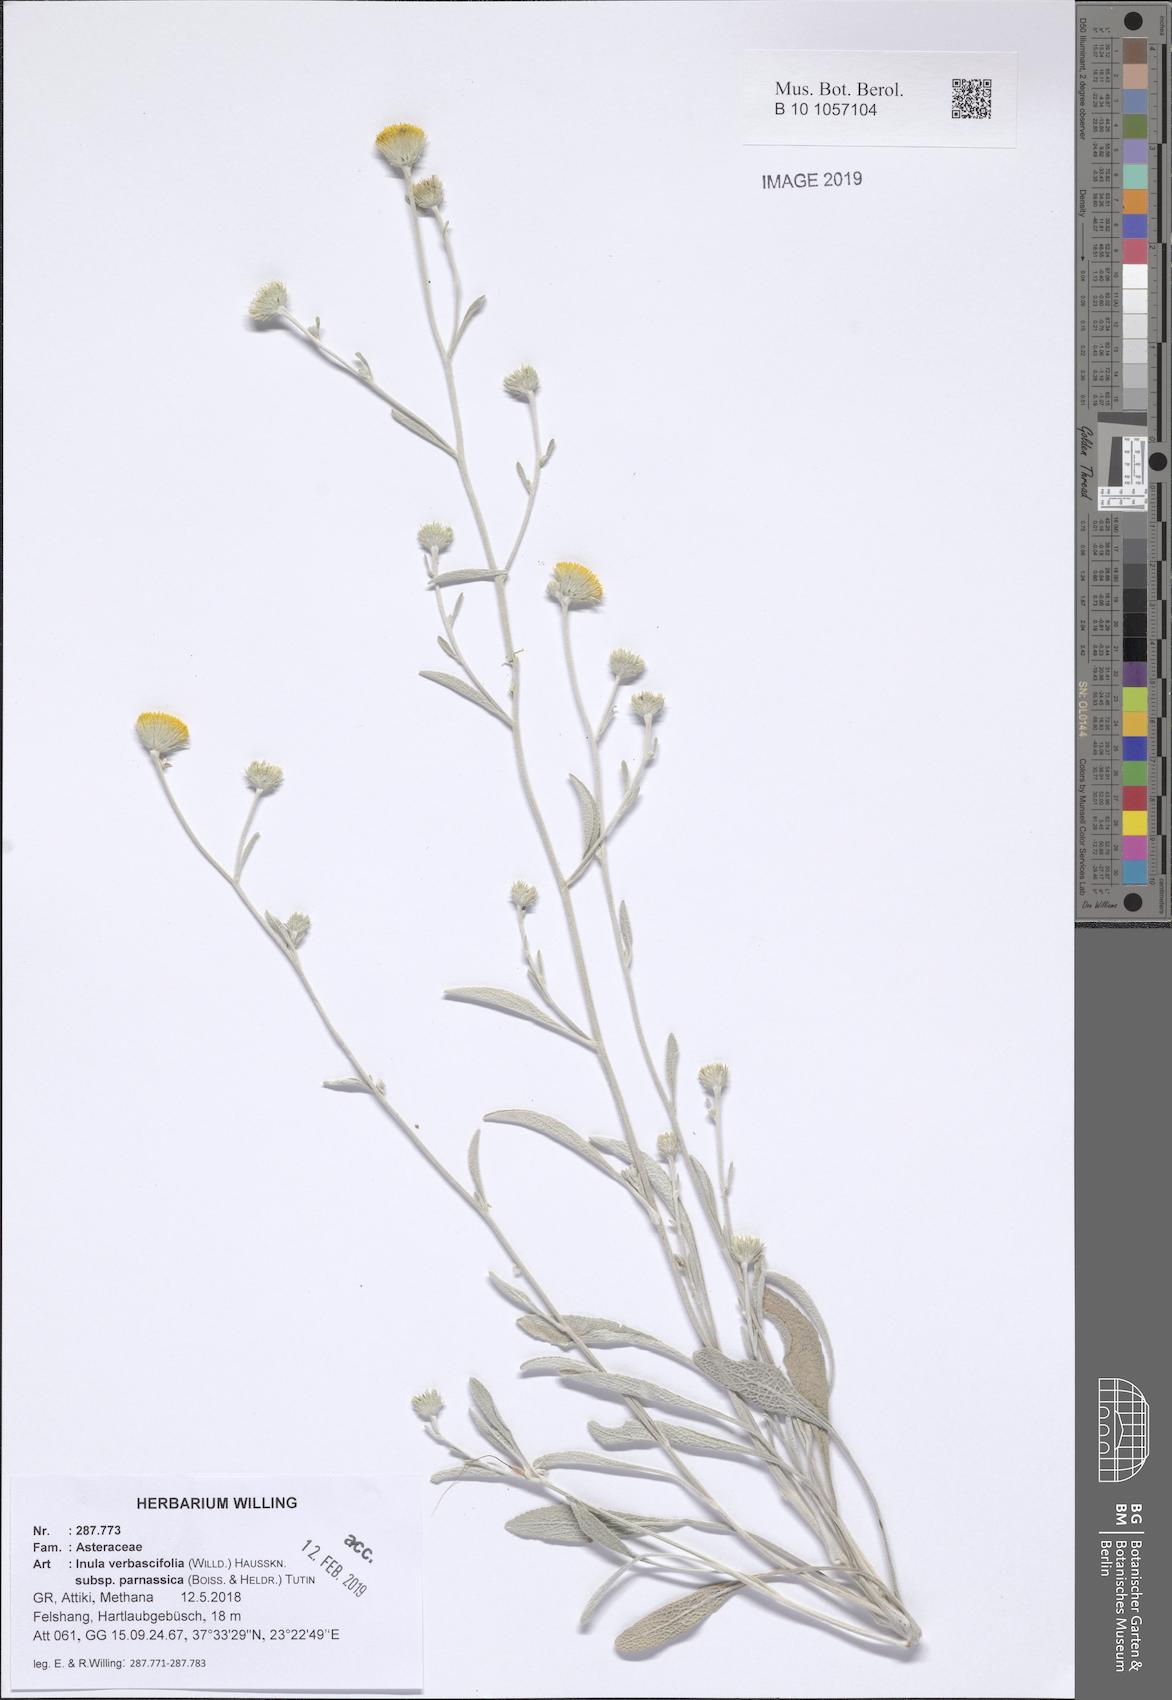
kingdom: Plantae
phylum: Tracheophyta
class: Magnoliopsida
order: Asterales
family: Asteraceae
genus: Pentanema
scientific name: Pentanema verbascifolium
